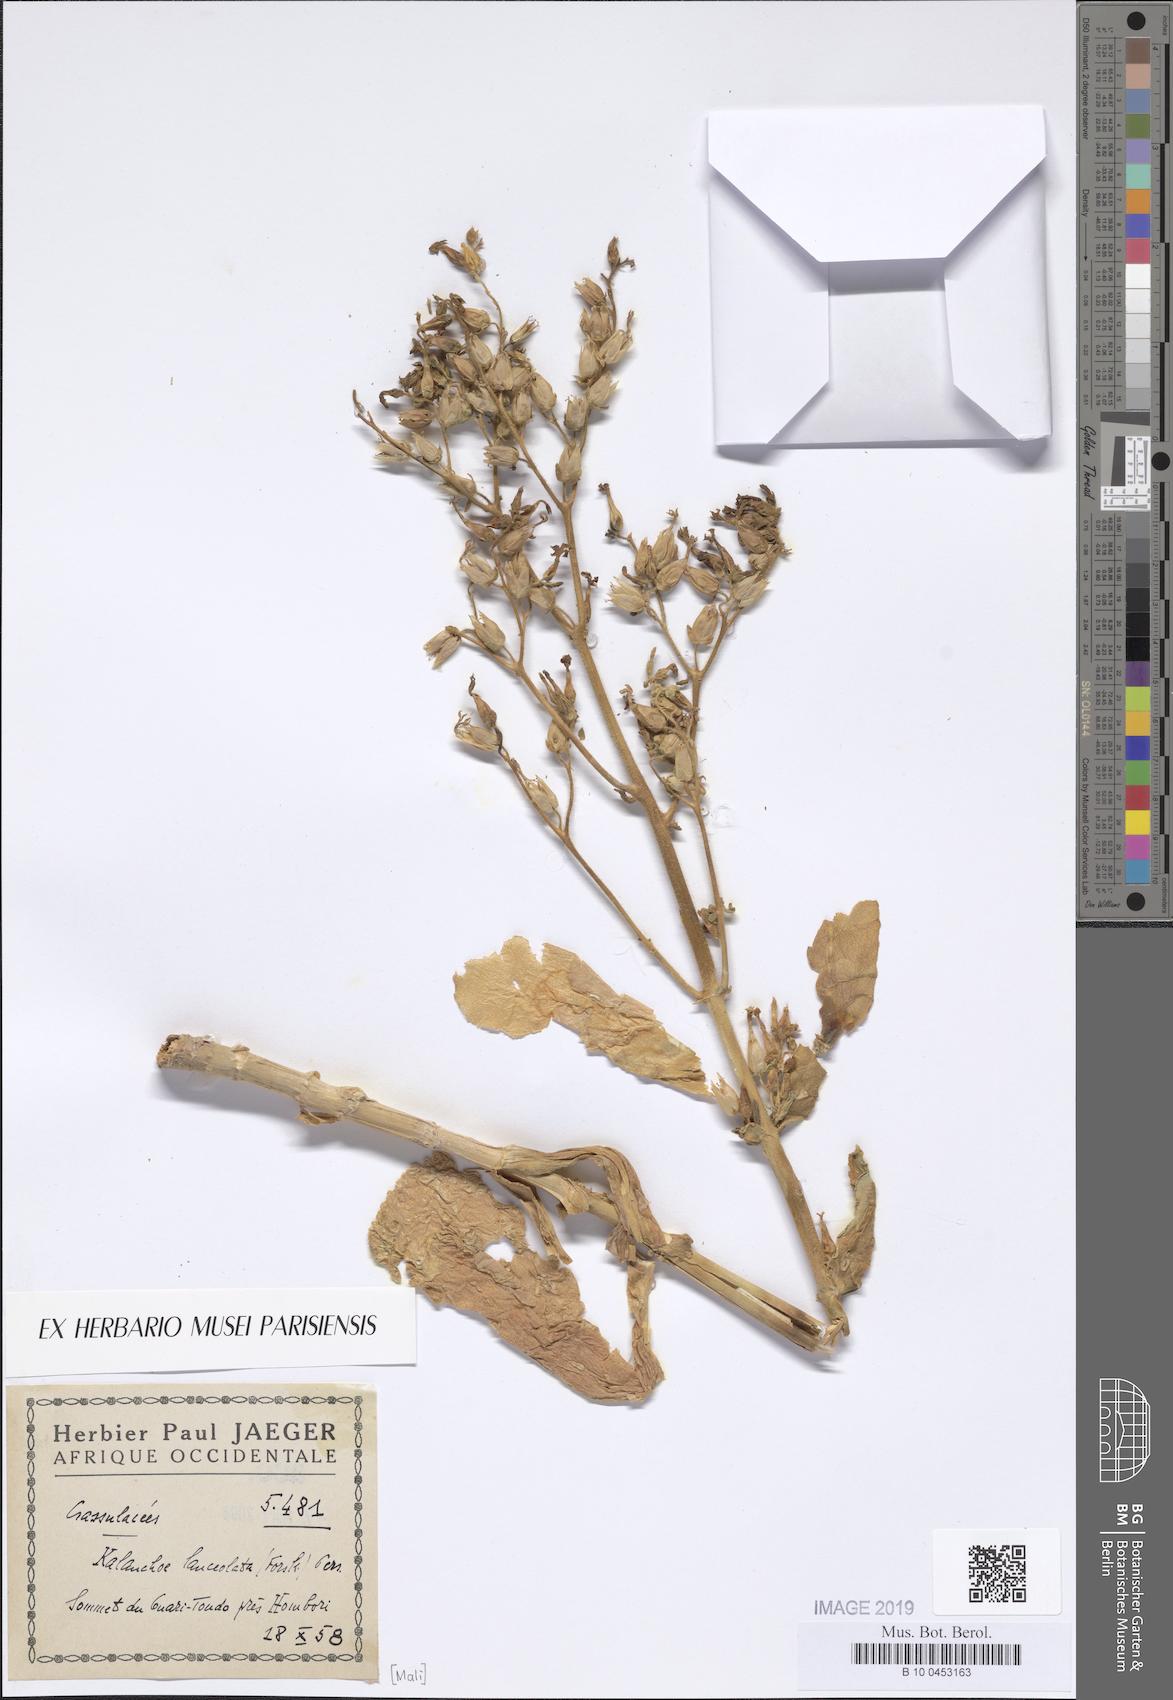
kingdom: Plantae
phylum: Tracheophyta
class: Magnoliopsida
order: Saxifragales
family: Crassulaceae
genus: Kalanchoe
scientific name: Kalanchoe lanceolata
